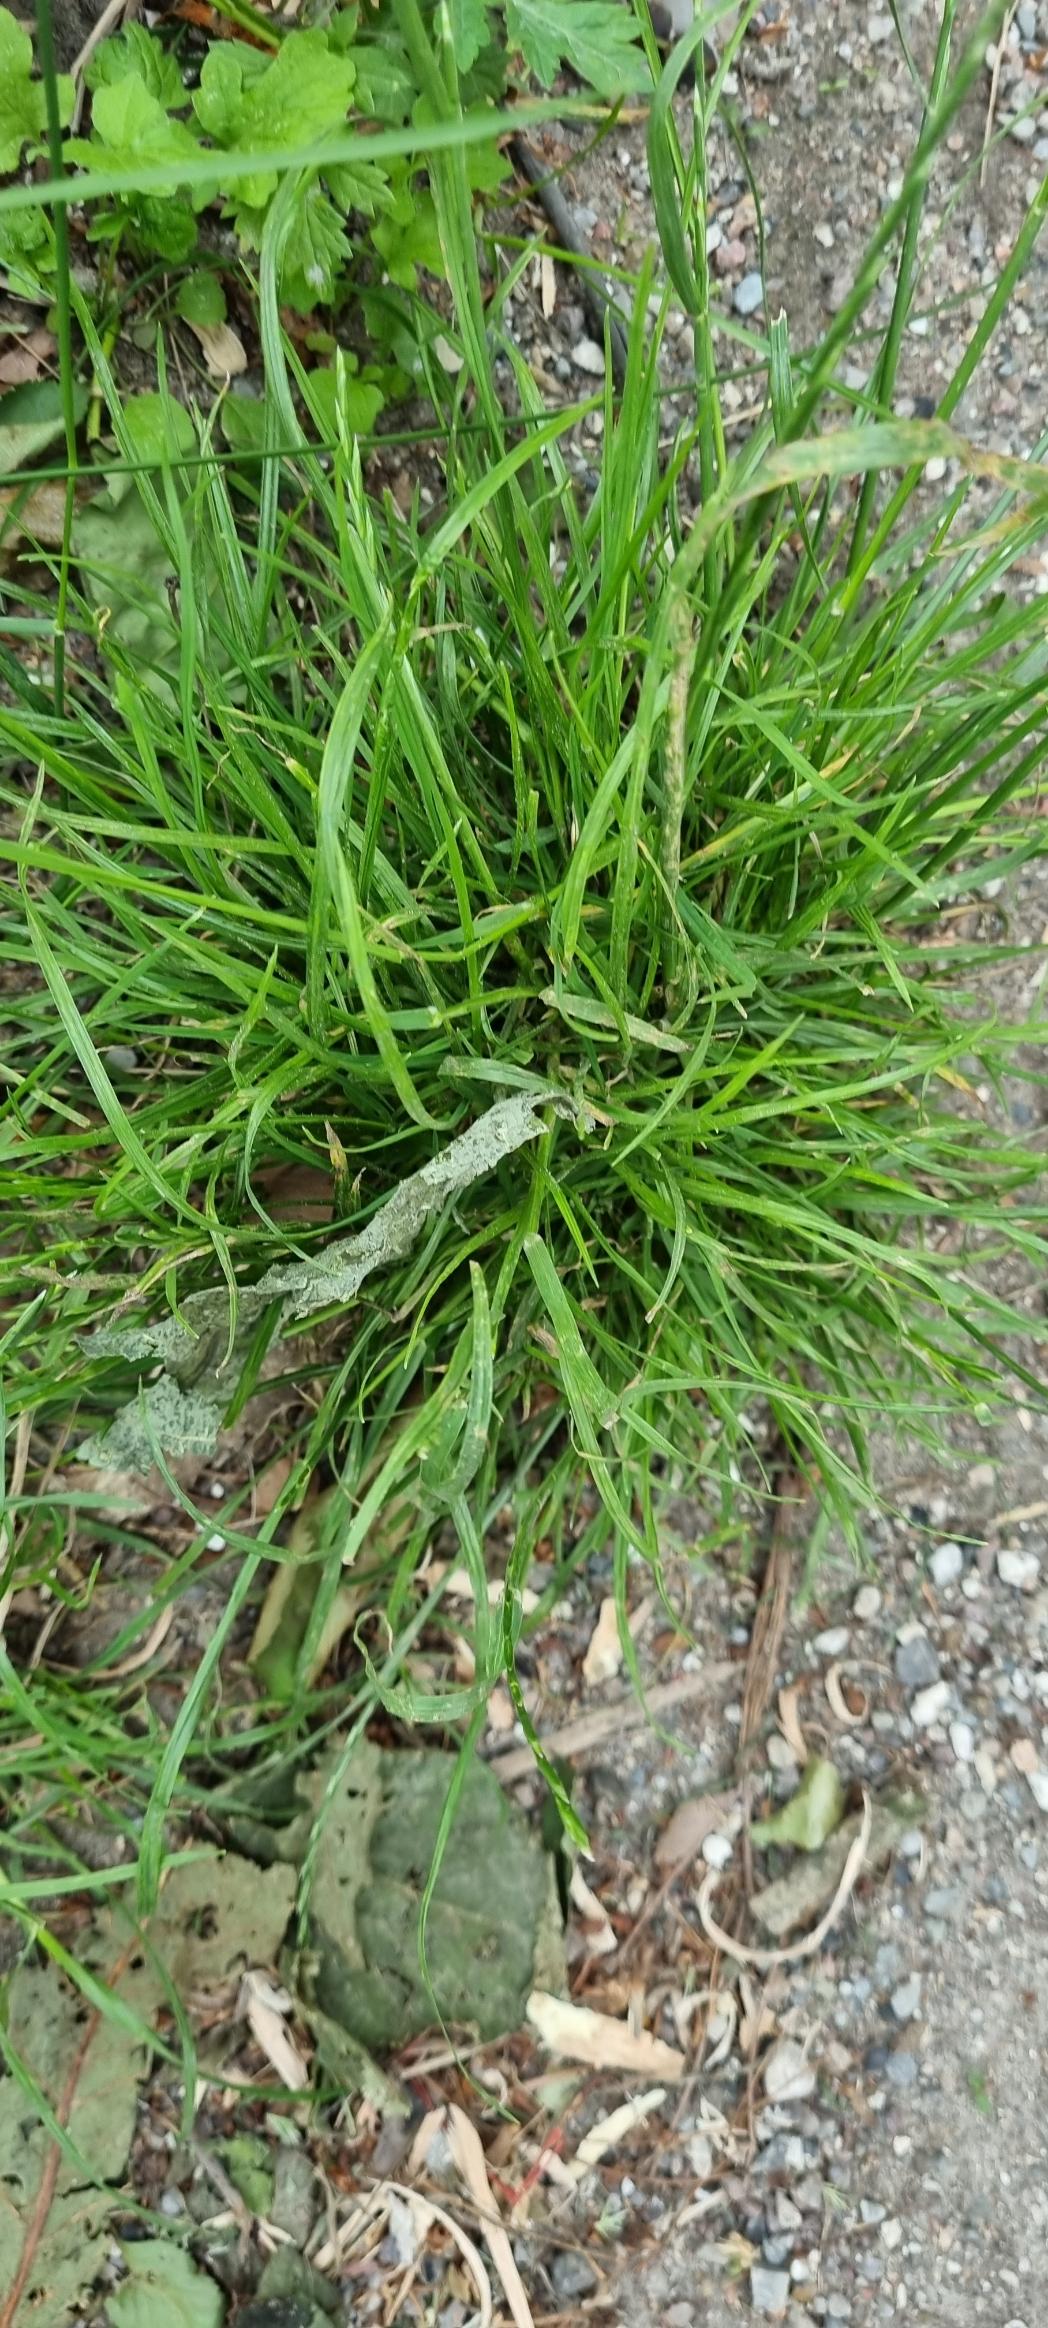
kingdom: Plantae
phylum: Tracheophyta
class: Liliopsida
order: Poales
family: Poaceae
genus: Lolium
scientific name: Lolium perenne
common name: Almindelig rajgræs
